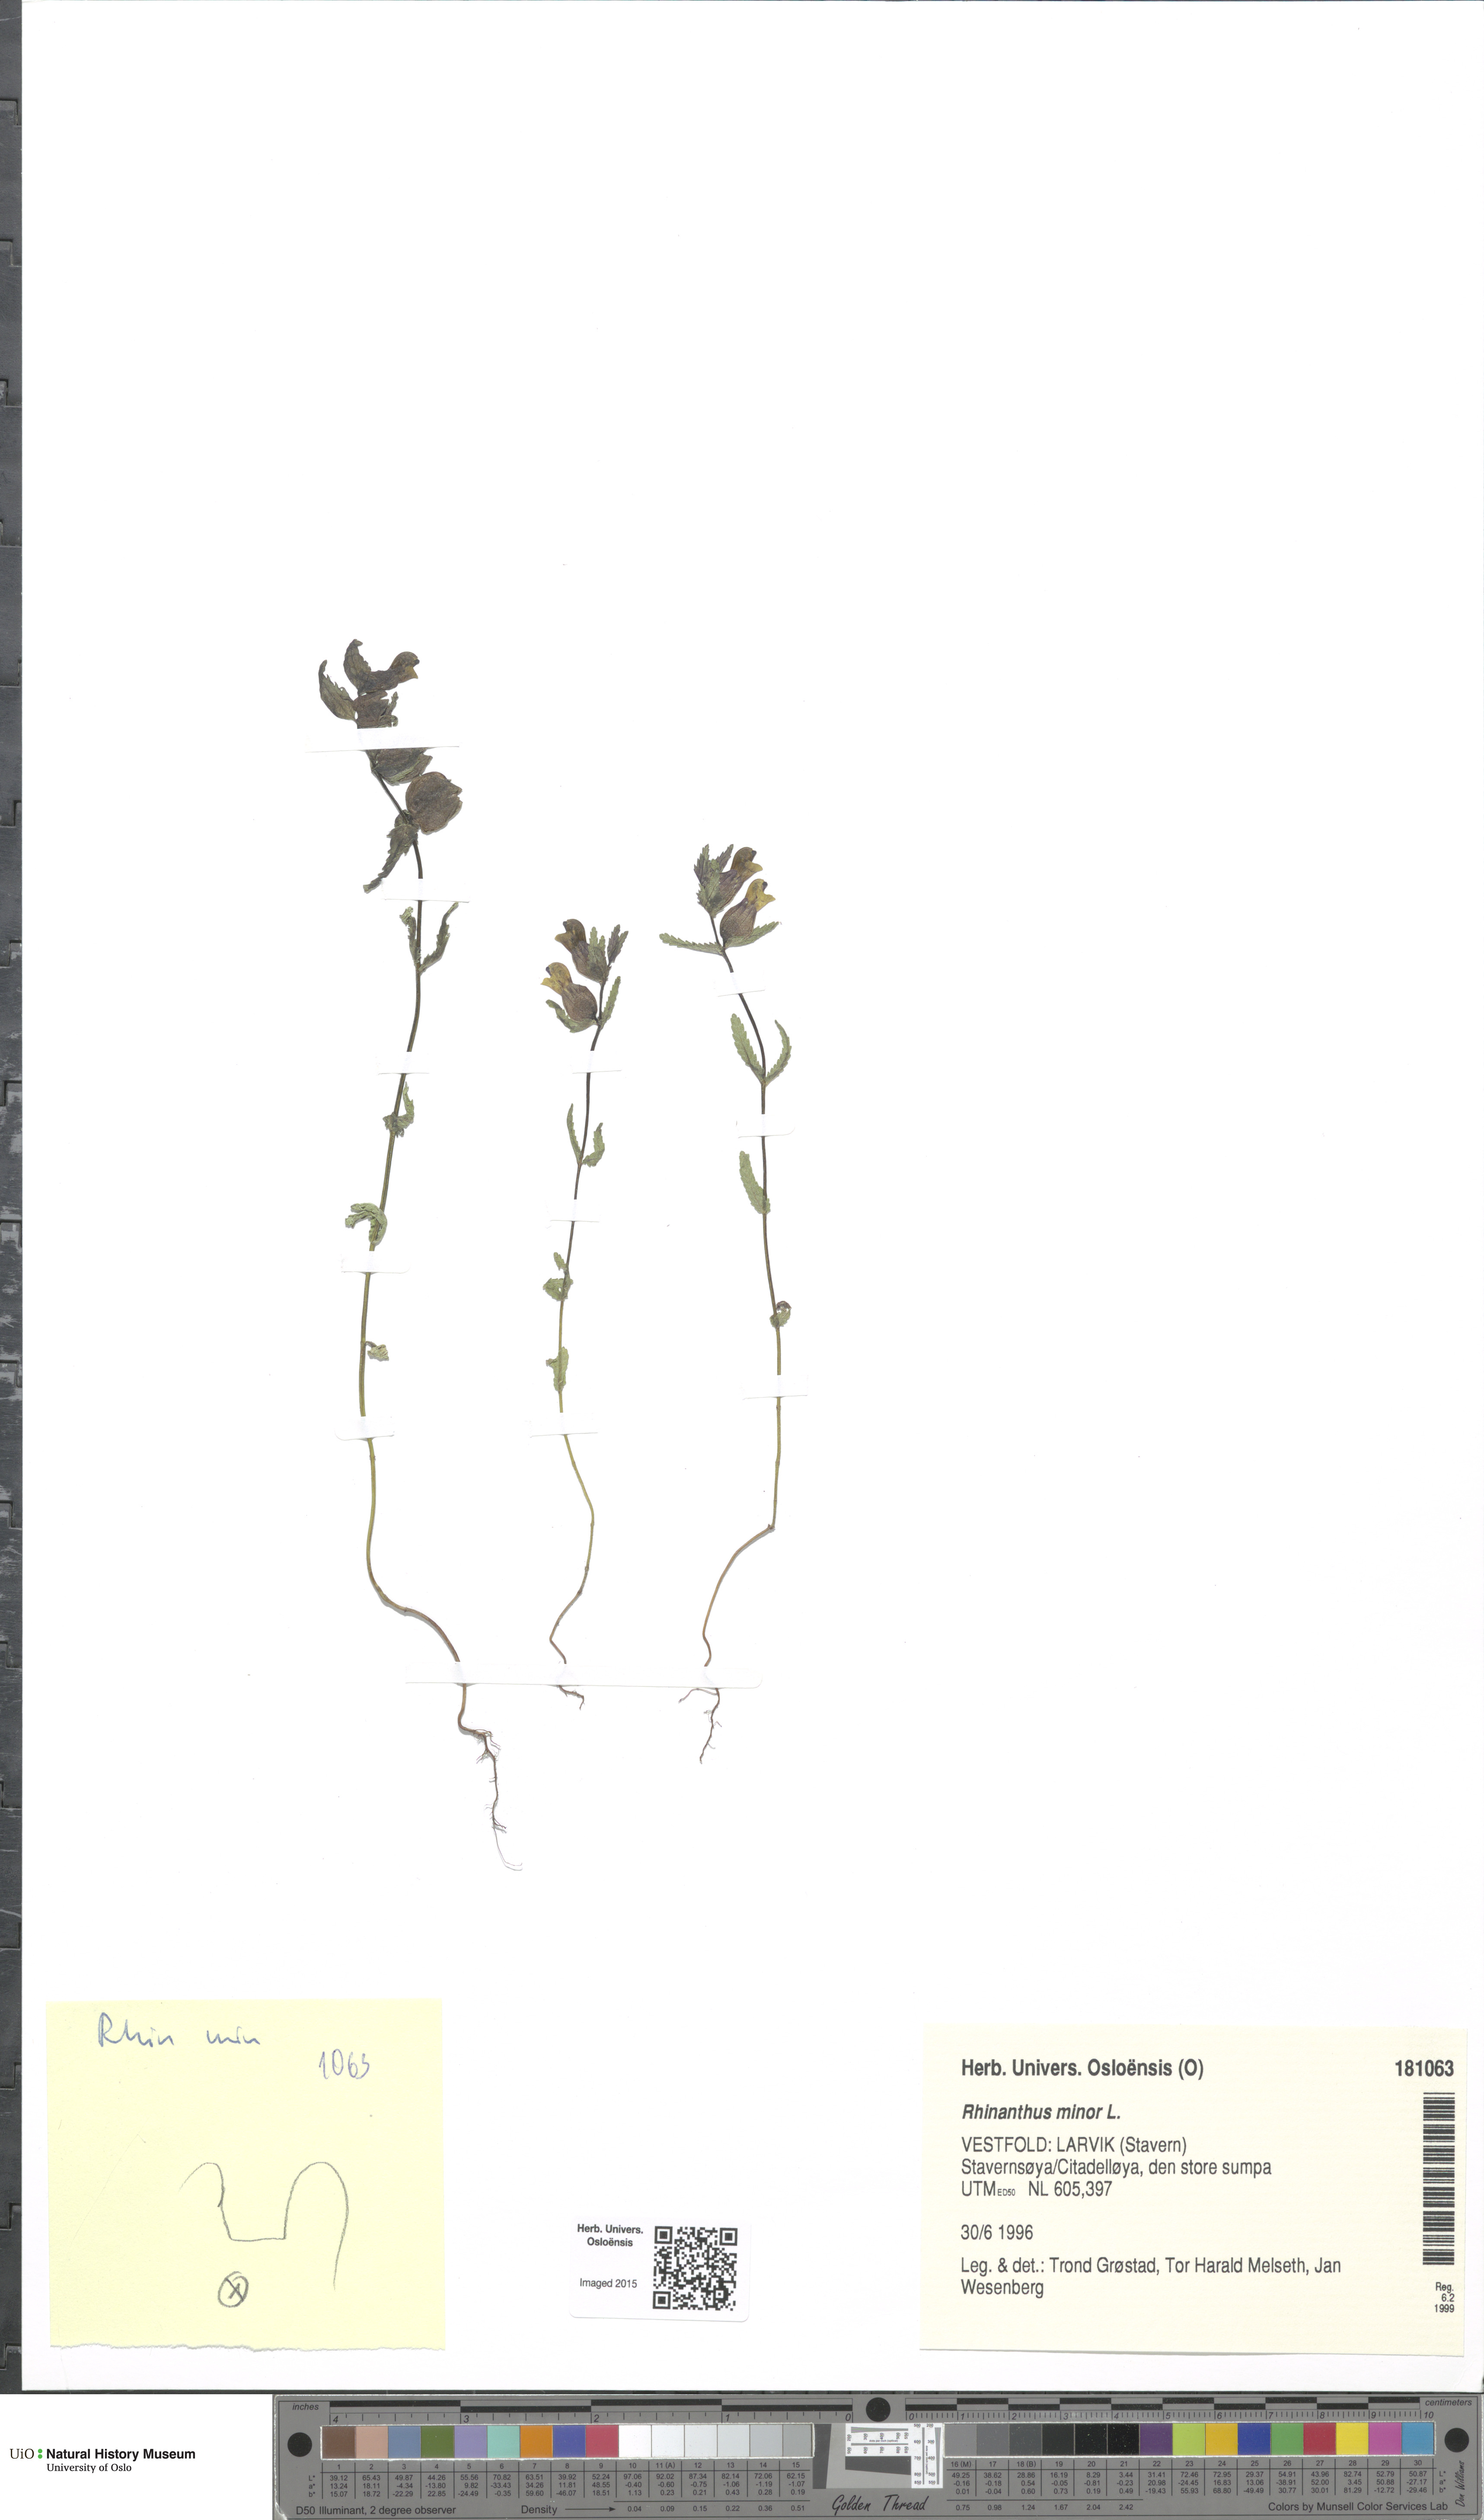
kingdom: Plantae
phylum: Tracheophyta
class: Magnoliopsida
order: Lamiales
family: Orobanchaceae
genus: Rhinanthus
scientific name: Rhinanthus minor
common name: Yellow-rattle
